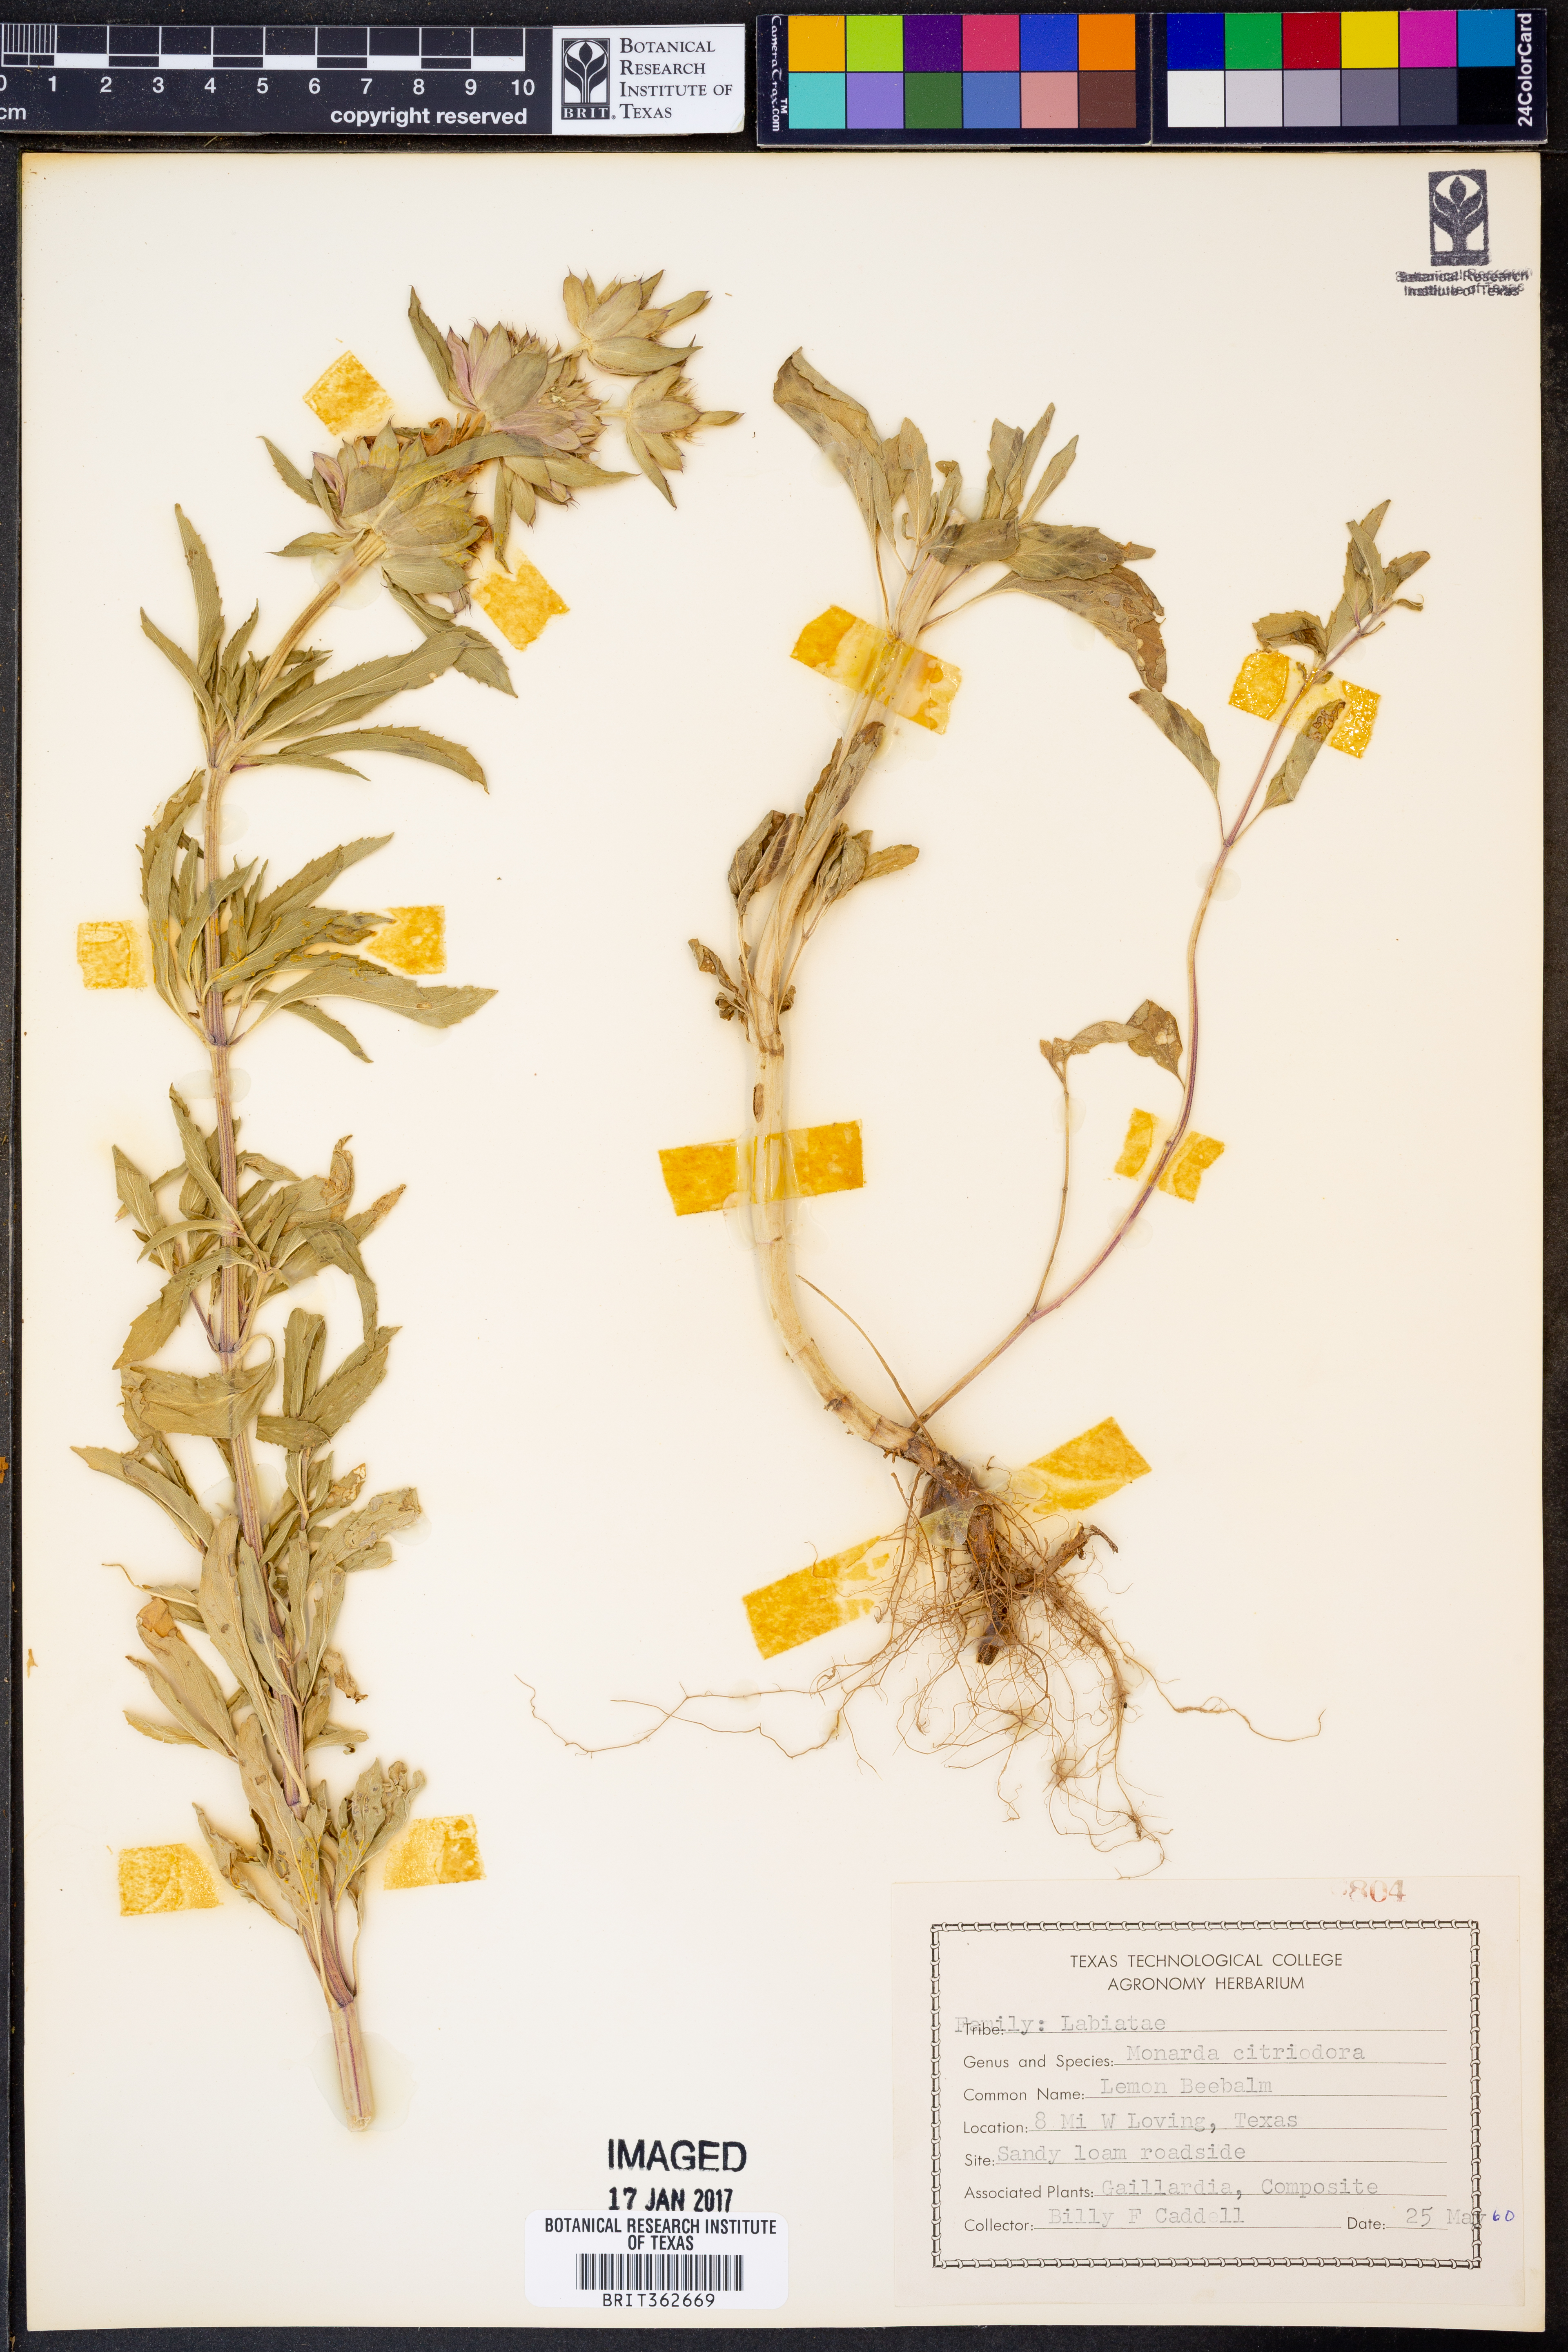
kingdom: Plantae
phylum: Tracheophyta
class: Magnoliopsida
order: Lamiales
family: Lamiaceae
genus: Monarda
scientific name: Monarda citriodora
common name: Lemon beebalm
